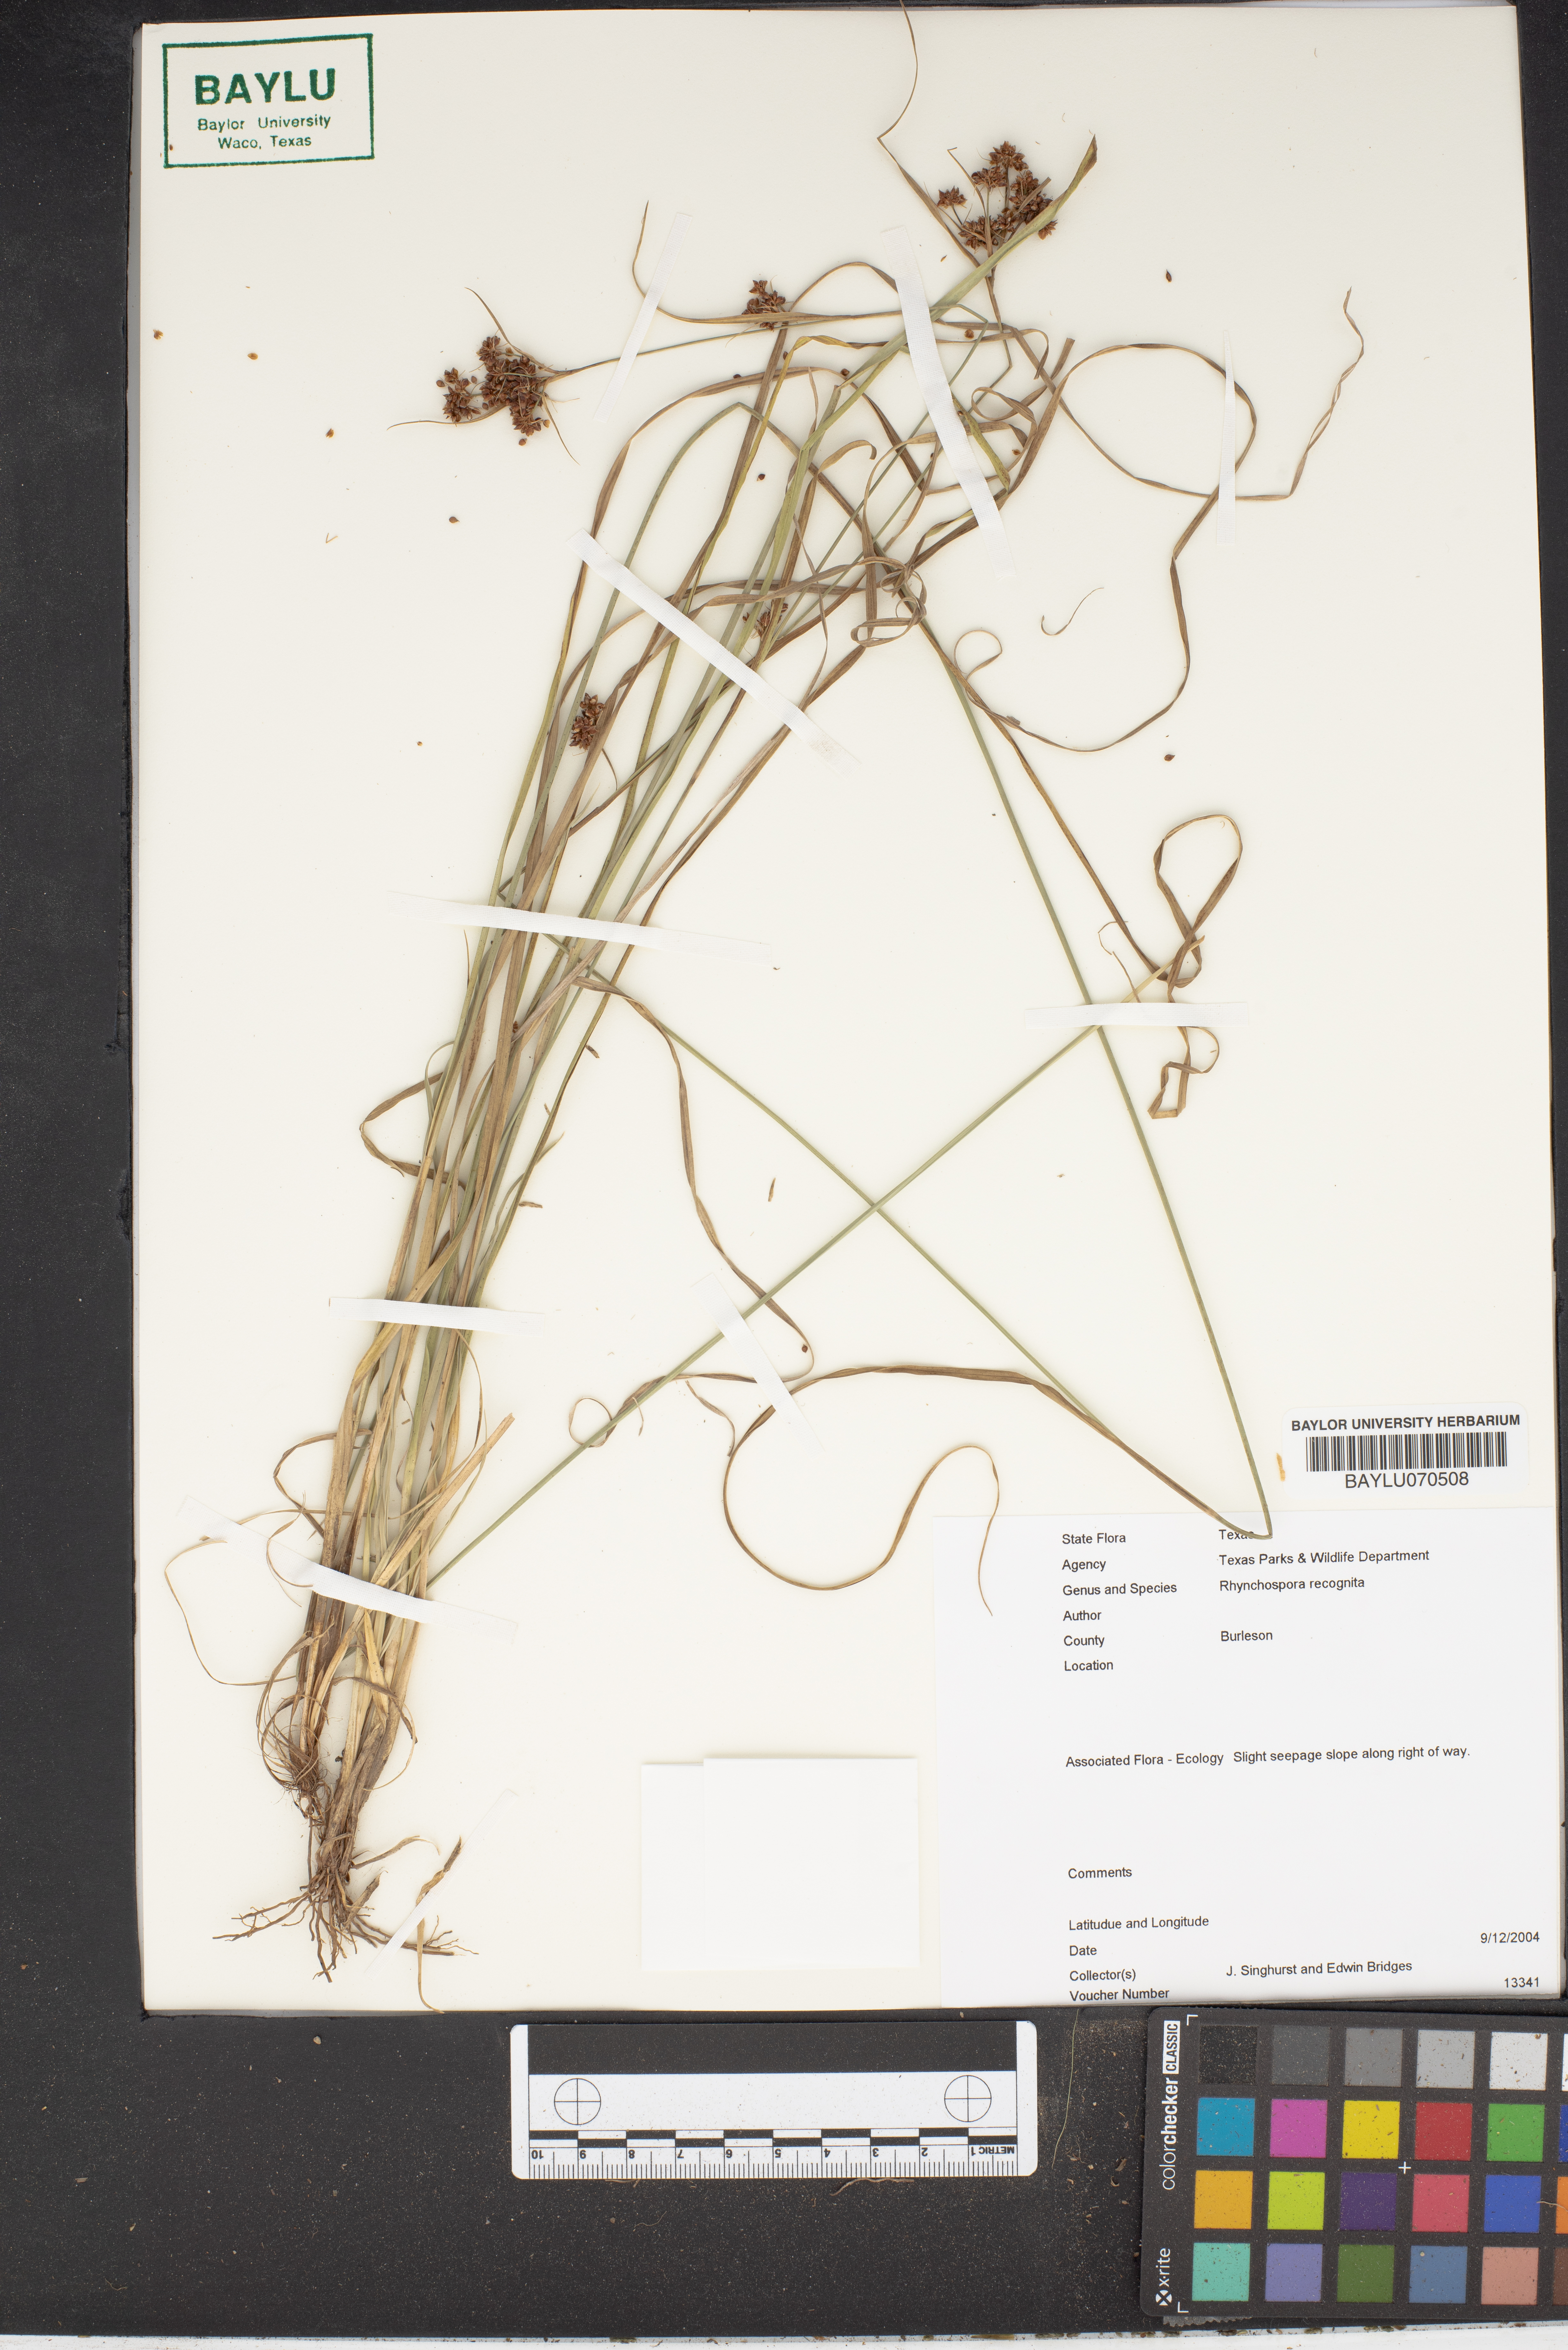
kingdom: Plantae
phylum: Tracheophyta
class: Liliopsida
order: Poales
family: Cyperaceae
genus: Rhynchospora
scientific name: Rhynchospora recognita
